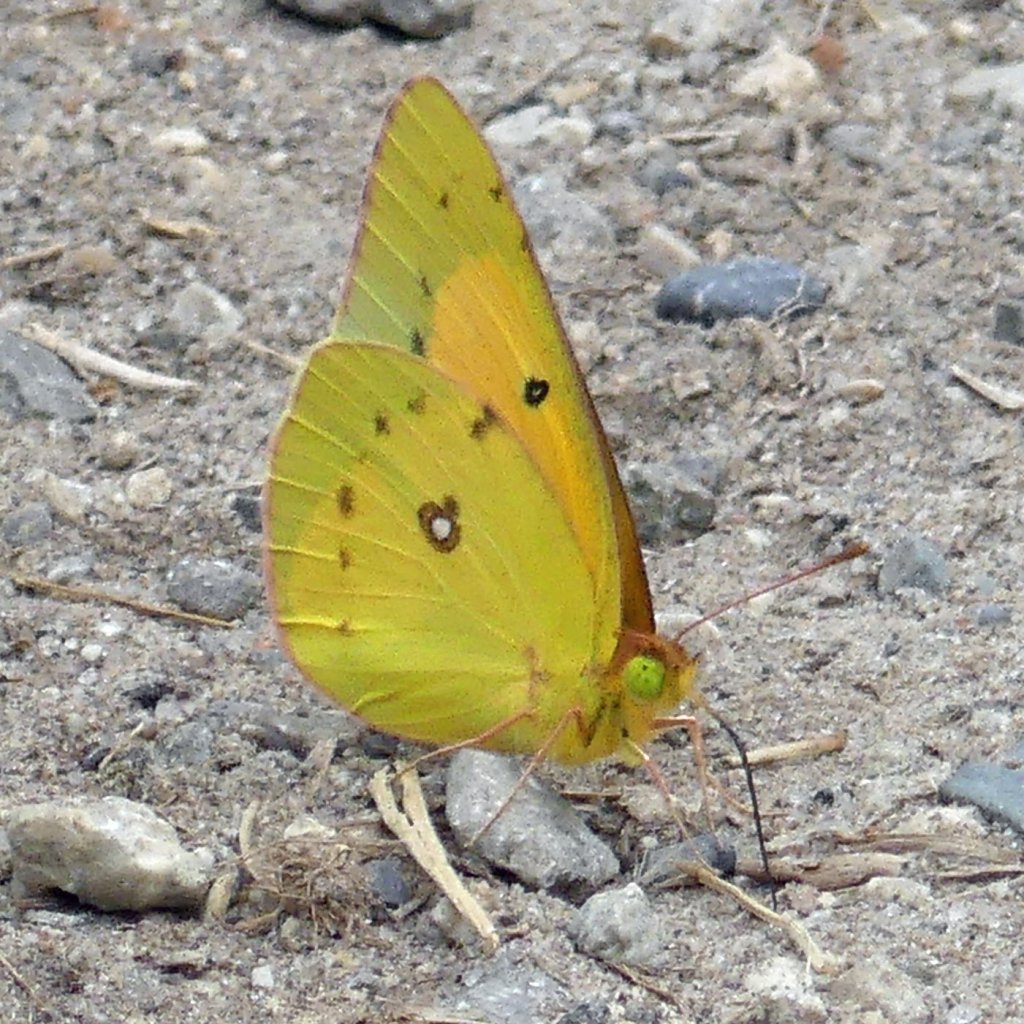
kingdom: Animalia
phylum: Arthropoda
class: Insecta
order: Lepidoptera
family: Pieridae
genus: Colias
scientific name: Colias eurytheme
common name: Orange Sulphur
